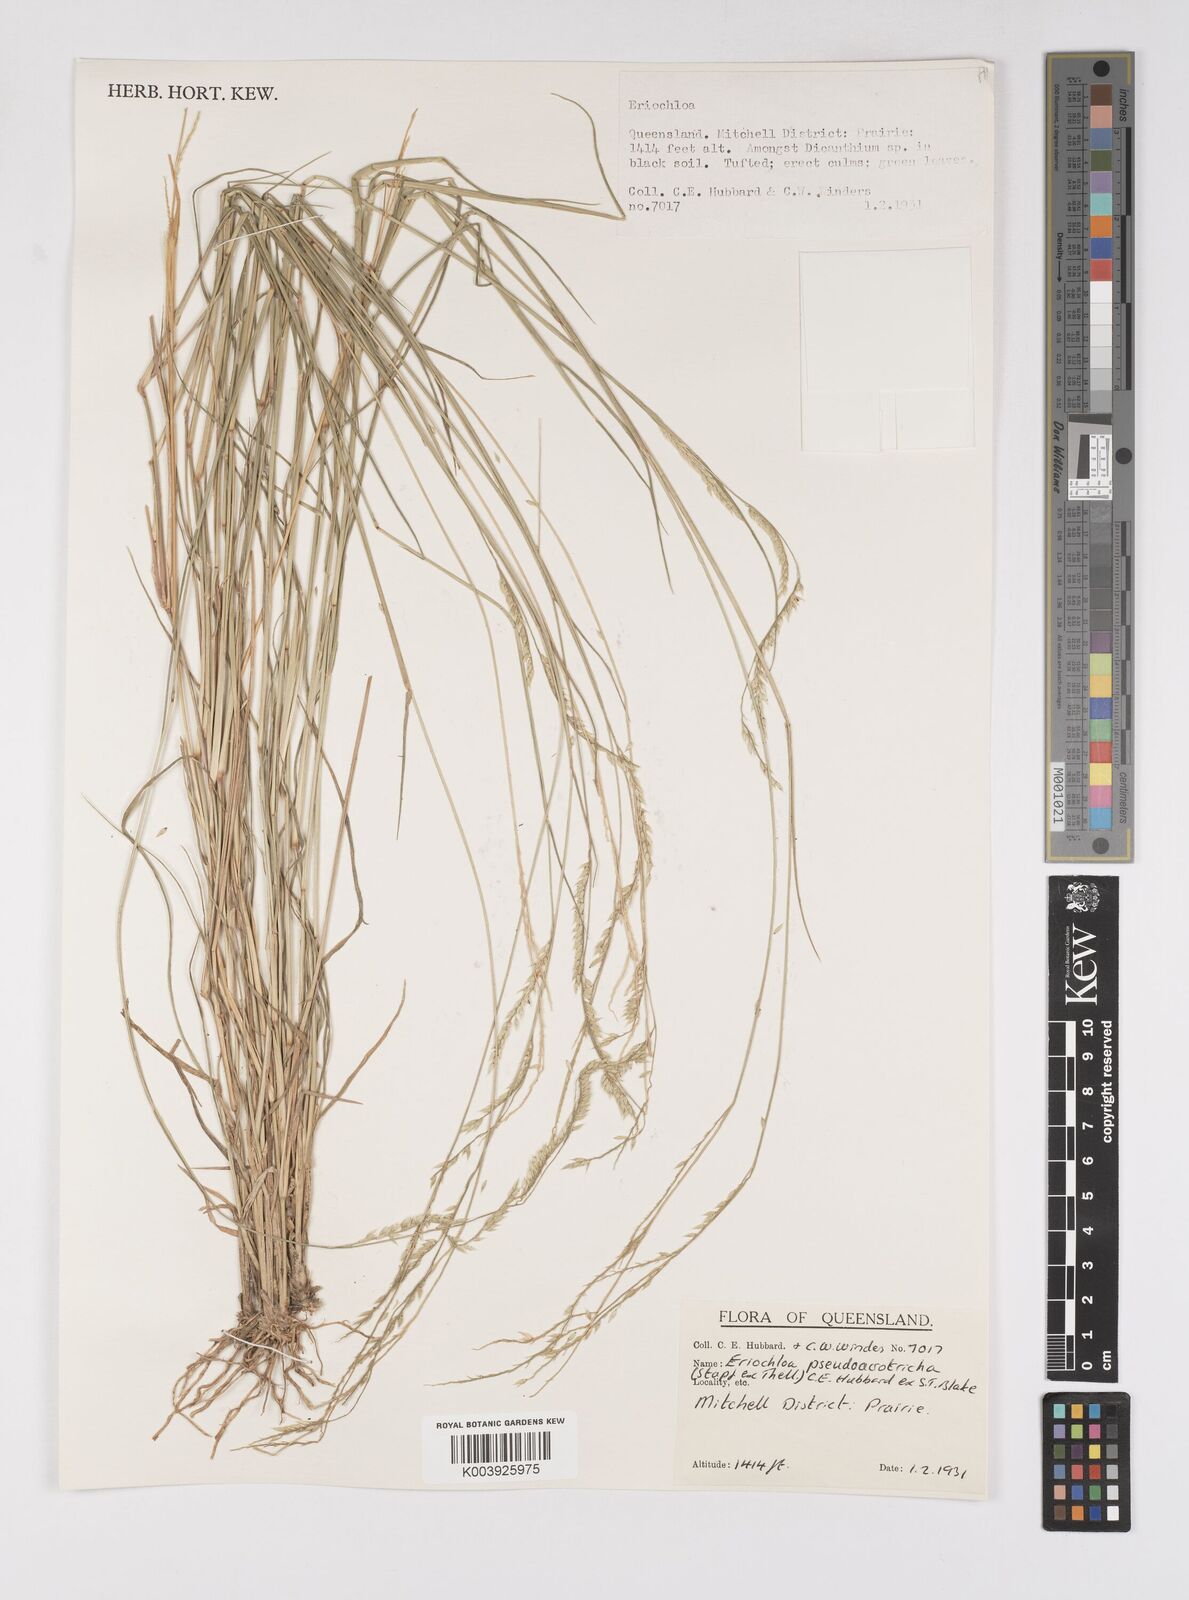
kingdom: Plantae
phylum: Tracheophyta
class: Liliopsida
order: Poales
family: Poaceae
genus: Eriochloa
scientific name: Eriochloa pseudoacrotricha
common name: Perennial cup-grass
